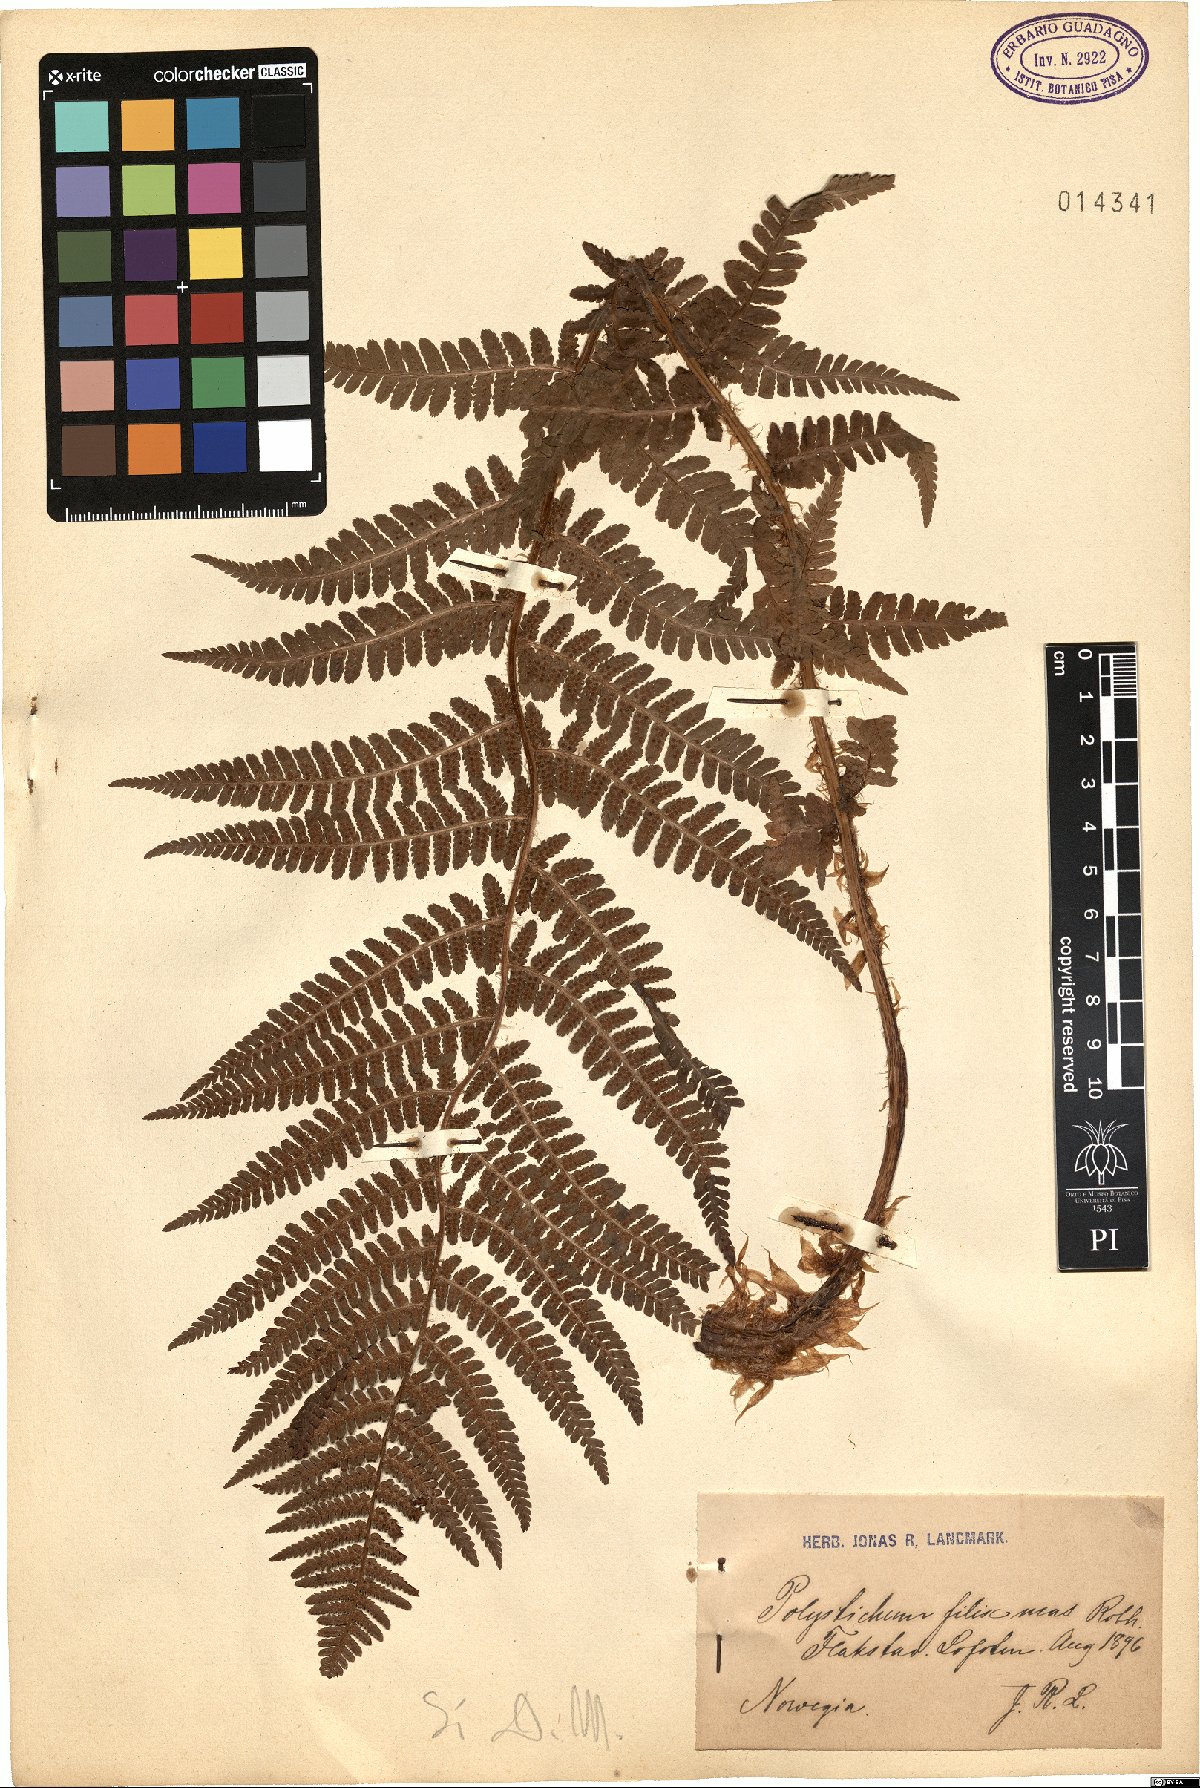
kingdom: Plantae
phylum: Tracheophyta
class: Polypodiopsida
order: Polypodiales
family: Dryopteridaceae
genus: Dryopteris
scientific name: Dryopteris filix-mas
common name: Male fern
